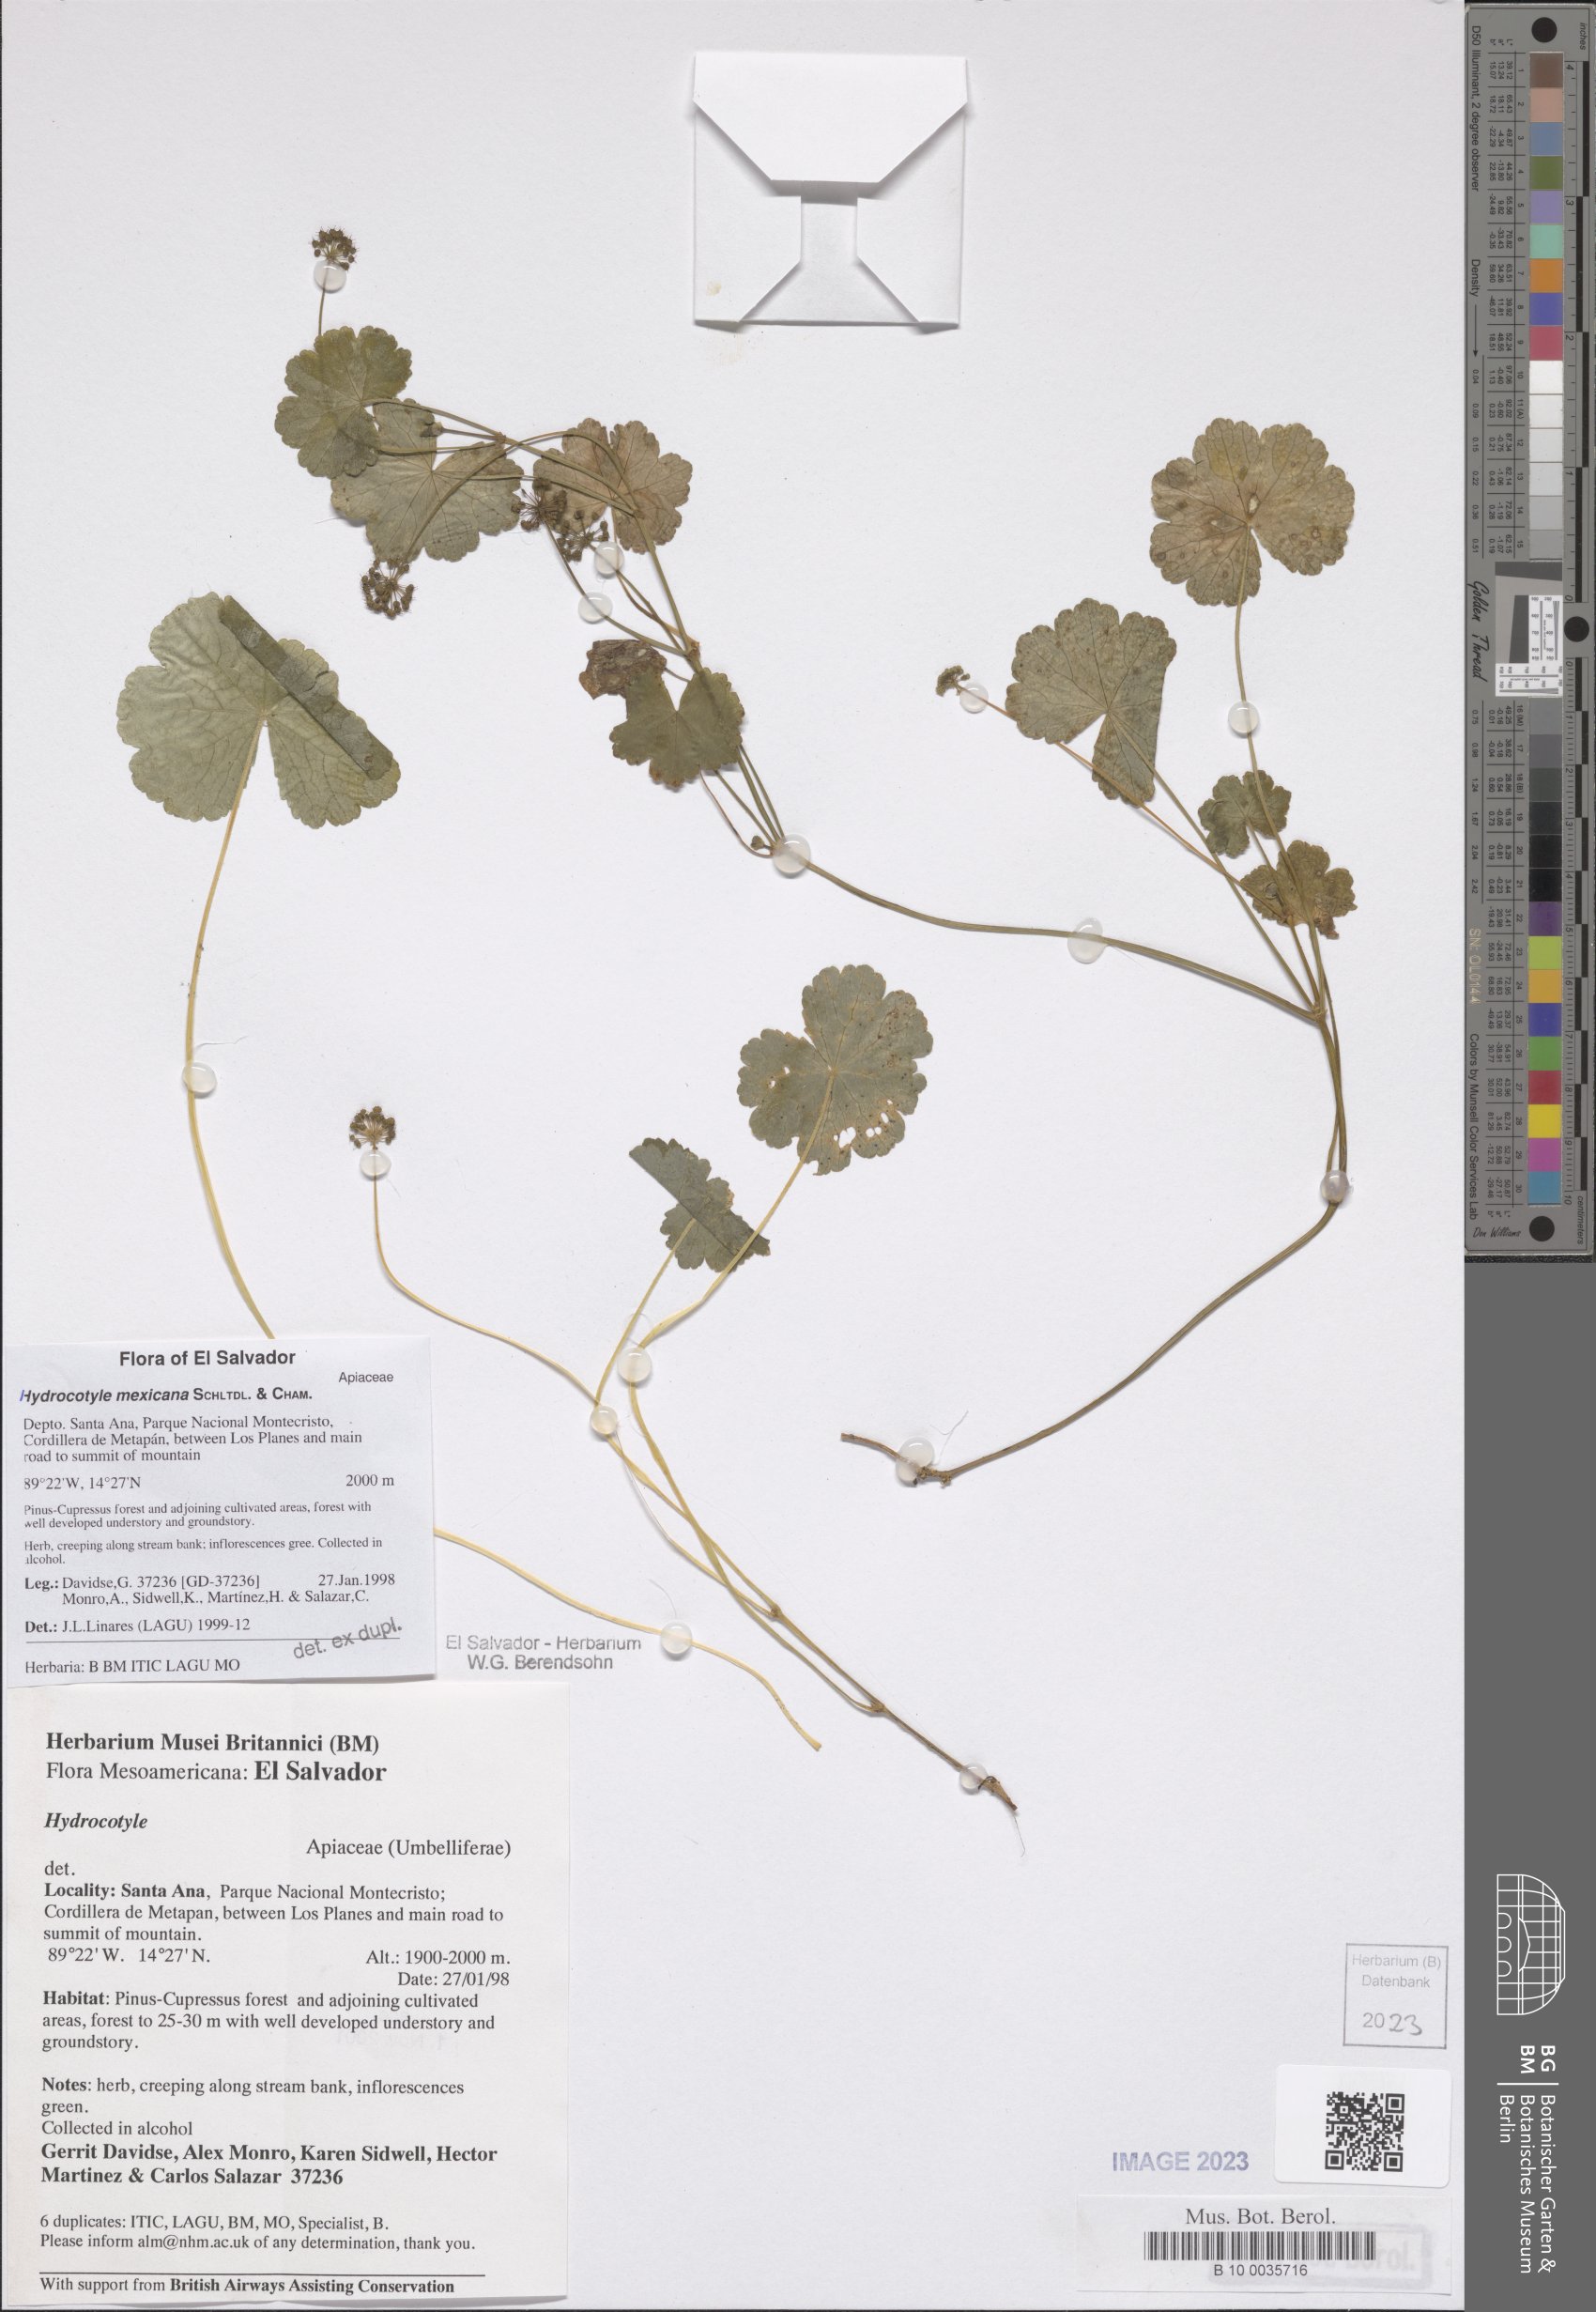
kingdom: Plantae
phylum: Tracheophyta
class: Magnoliopsida
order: Apiales
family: Araliaceae
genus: Hydrocotyle
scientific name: Hydrocotyle mexicana
